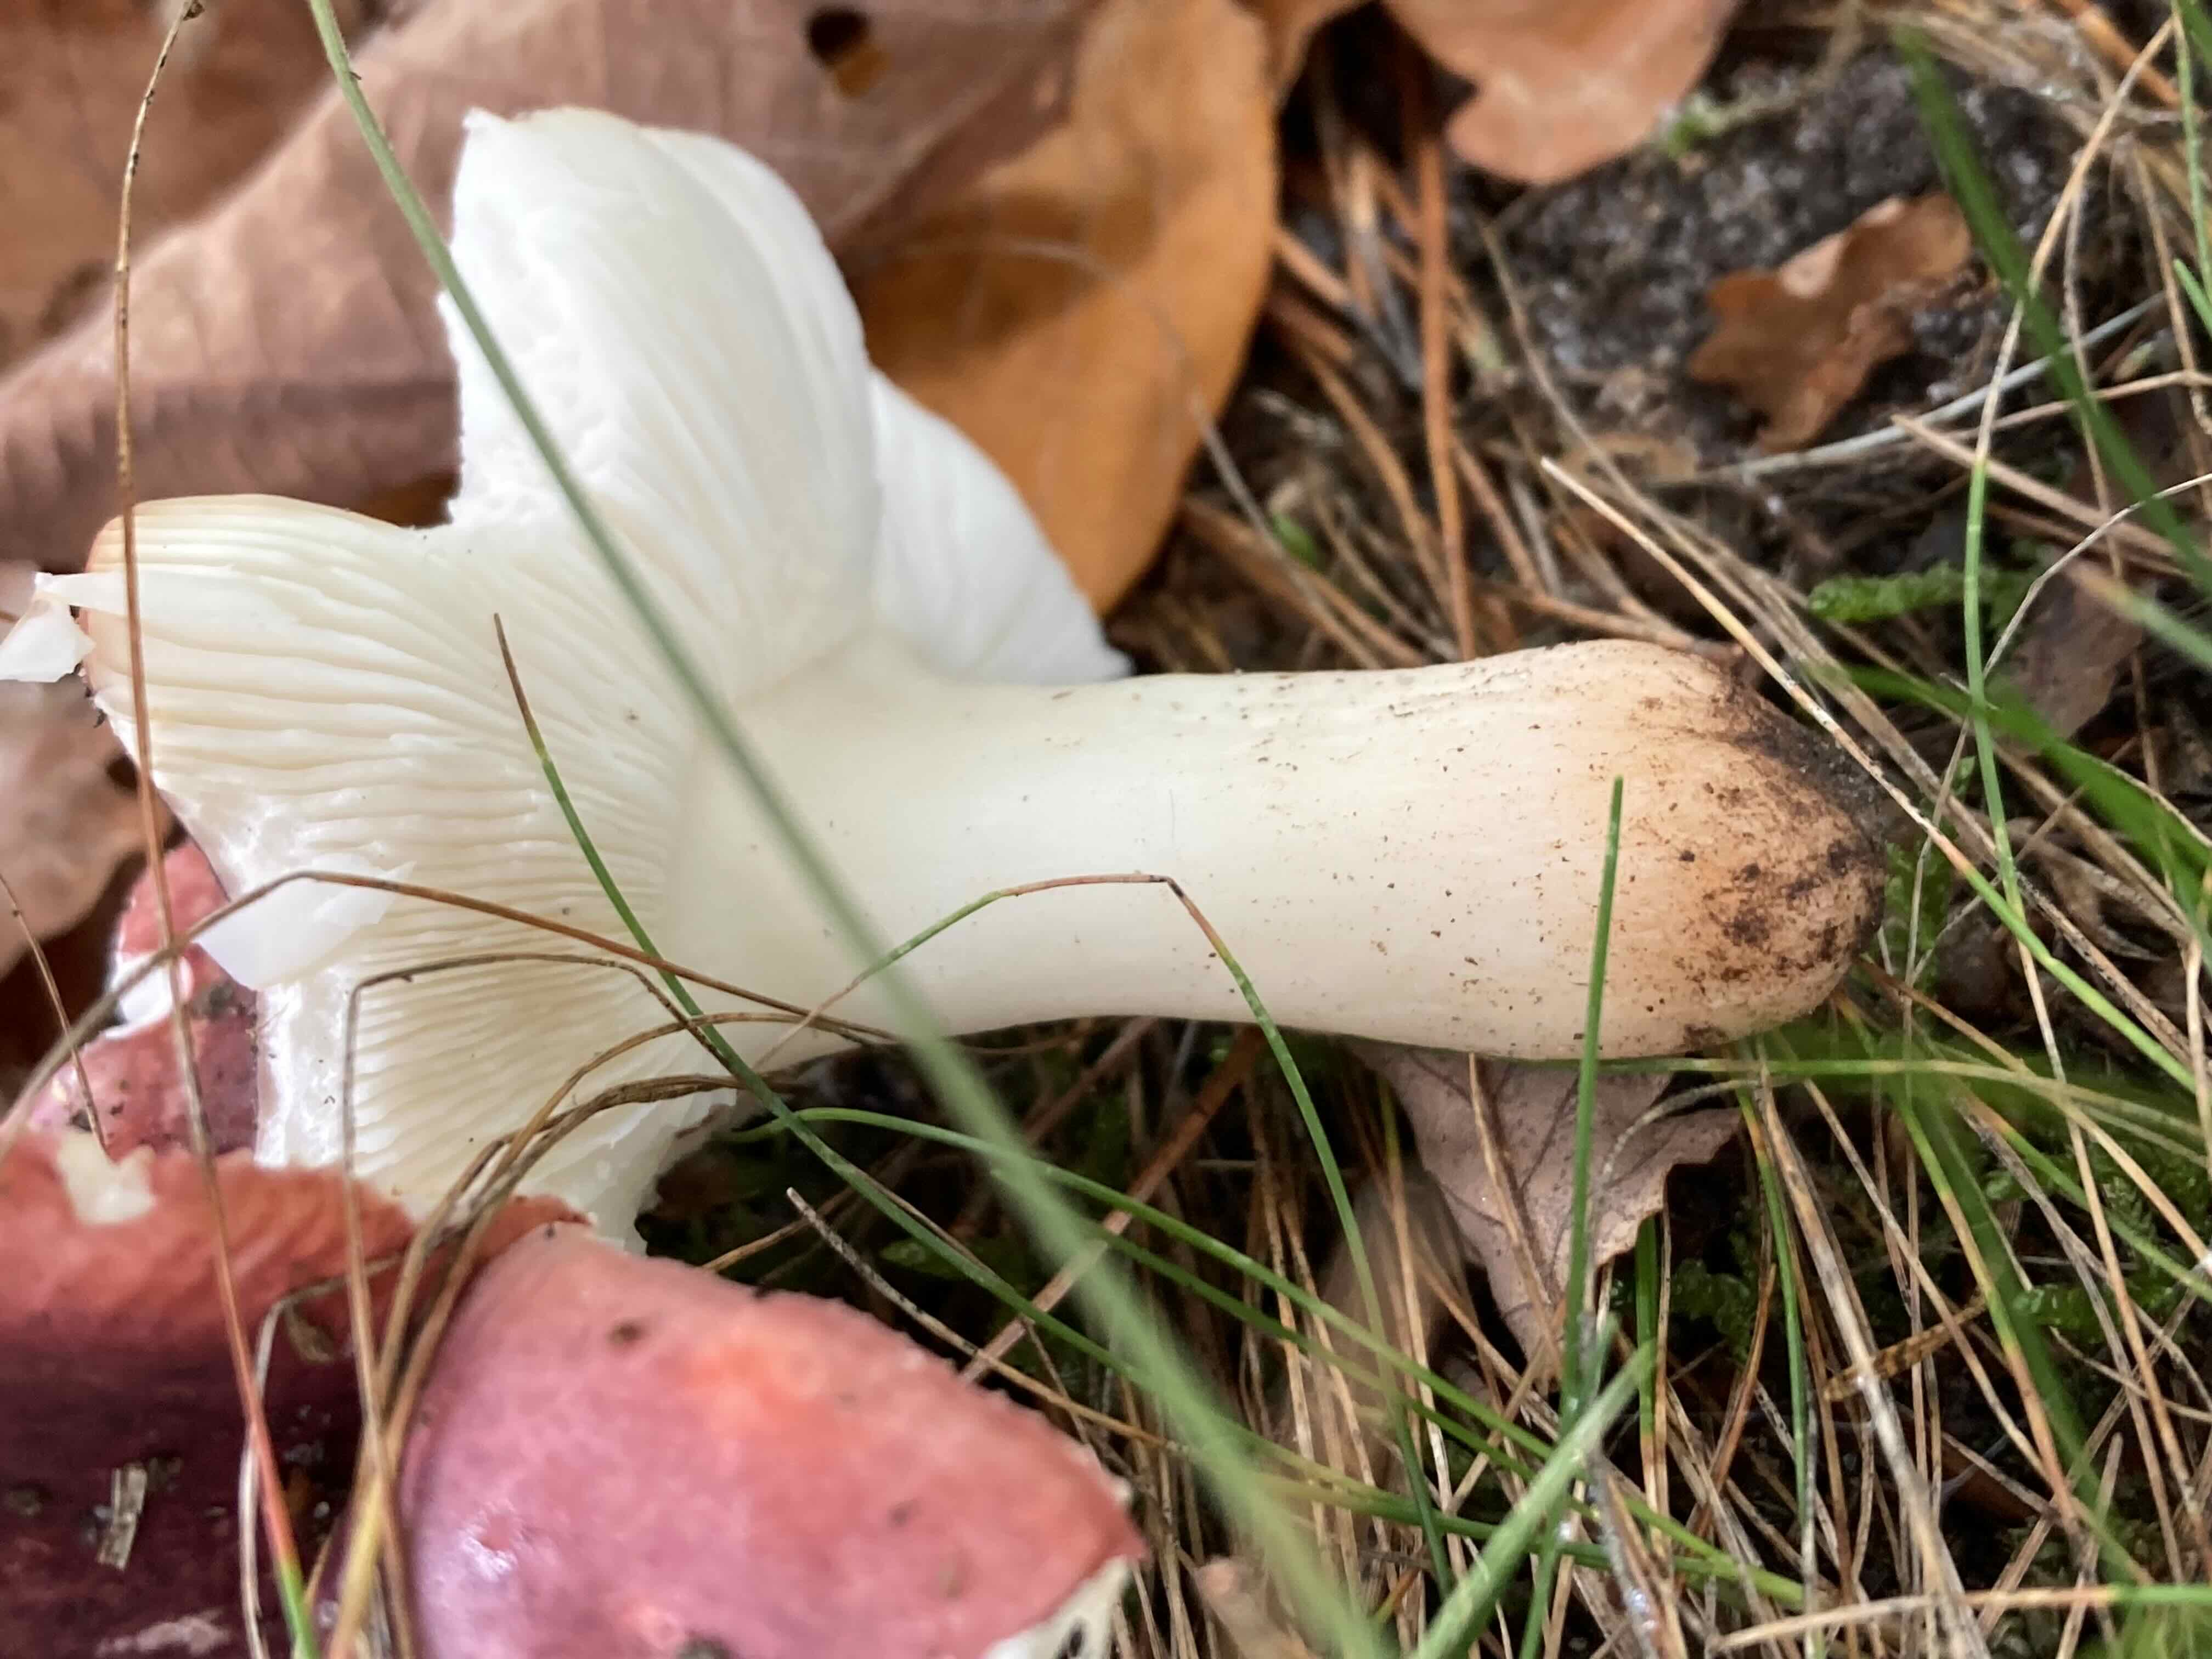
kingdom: Fungi
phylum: Basidiomycota
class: Agaricomycetes
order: Russulales
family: Russulaceae
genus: Russula
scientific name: Russula
